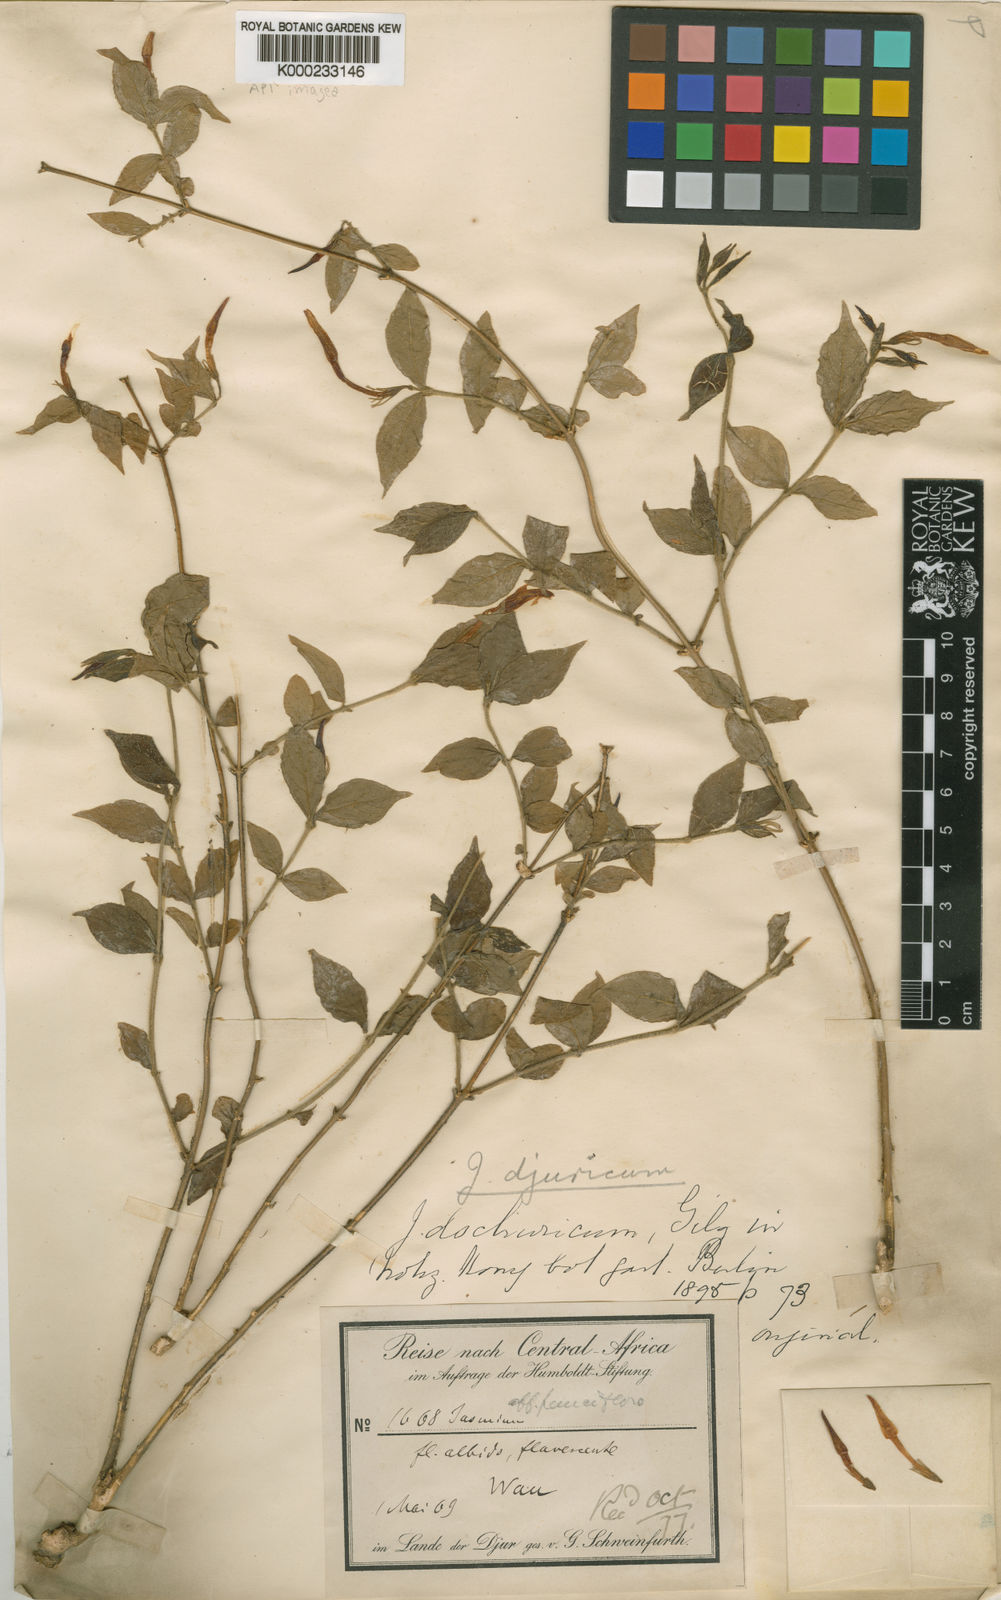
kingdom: Plantae
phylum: Tracheophyta
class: Magnoliopsida
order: Lamiales
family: Oleaceae
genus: Jasminum
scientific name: Jasminum
